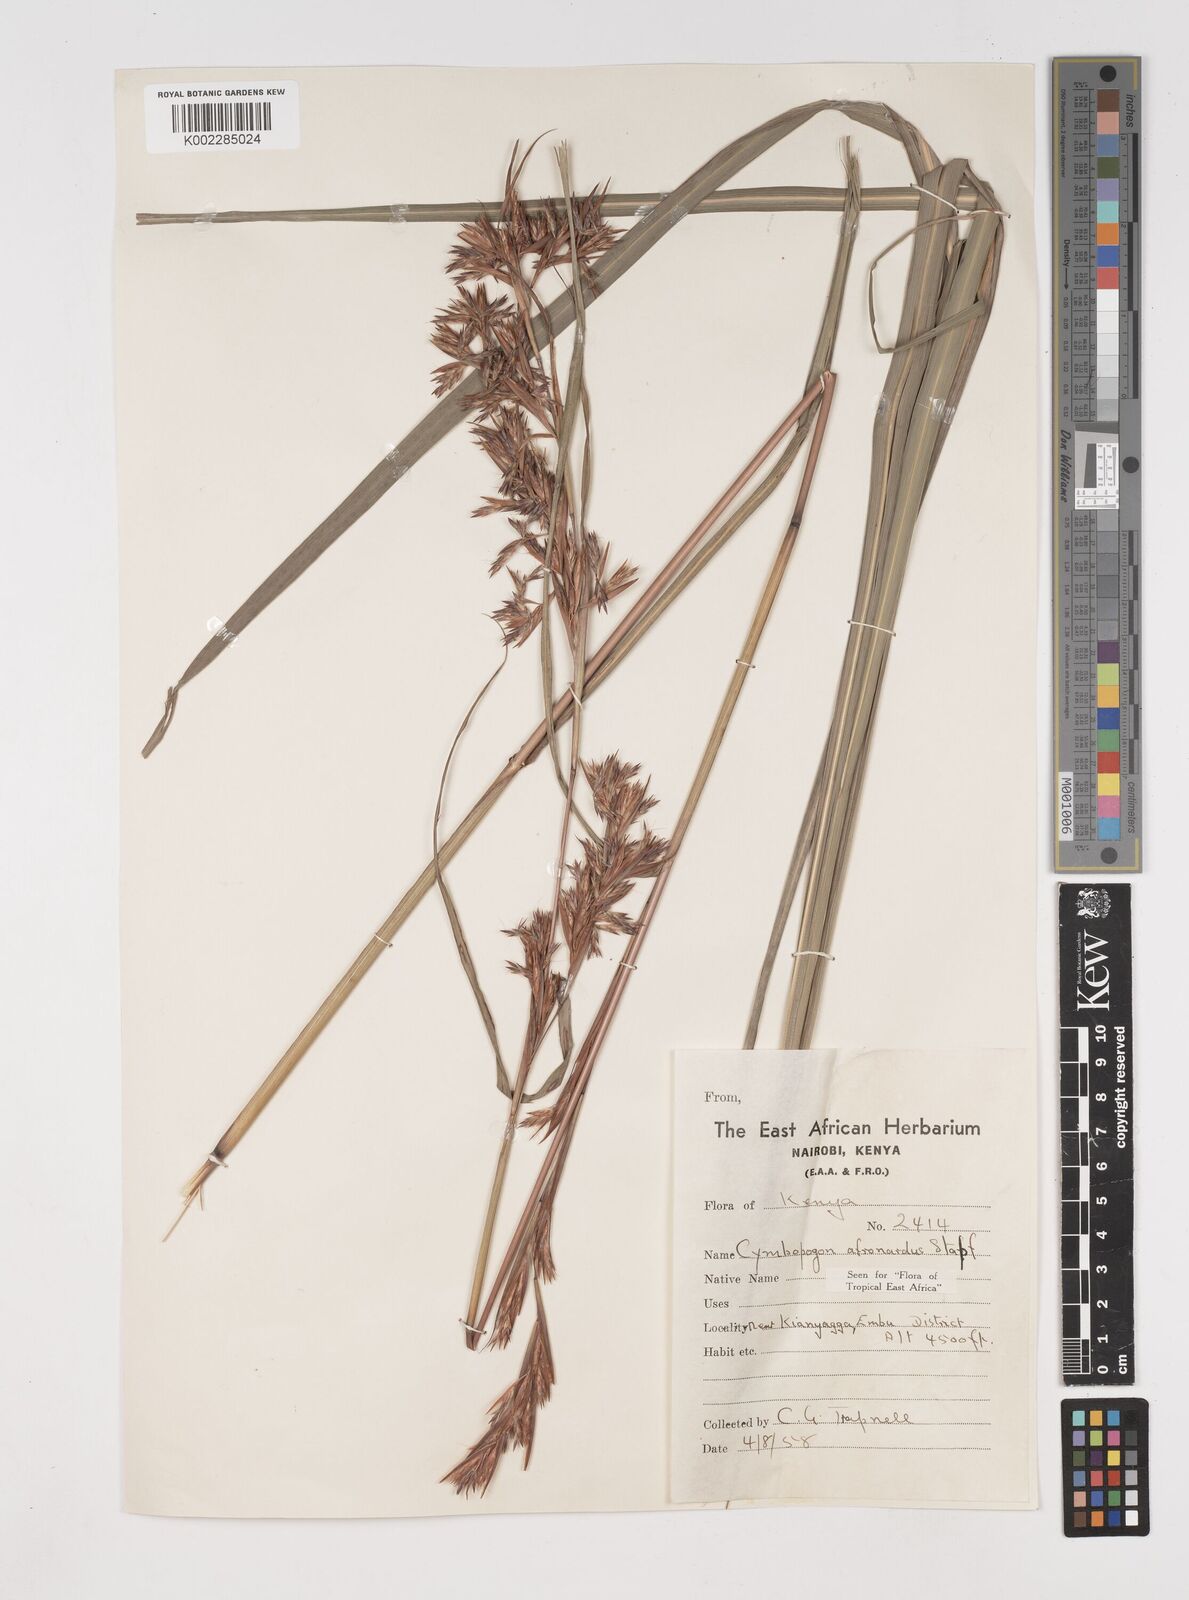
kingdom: Plantae
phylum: Tracheophyta
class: Liliopsida
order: Poales
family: Poaceae
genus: Cymbopogon
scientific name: Cymbopogon
